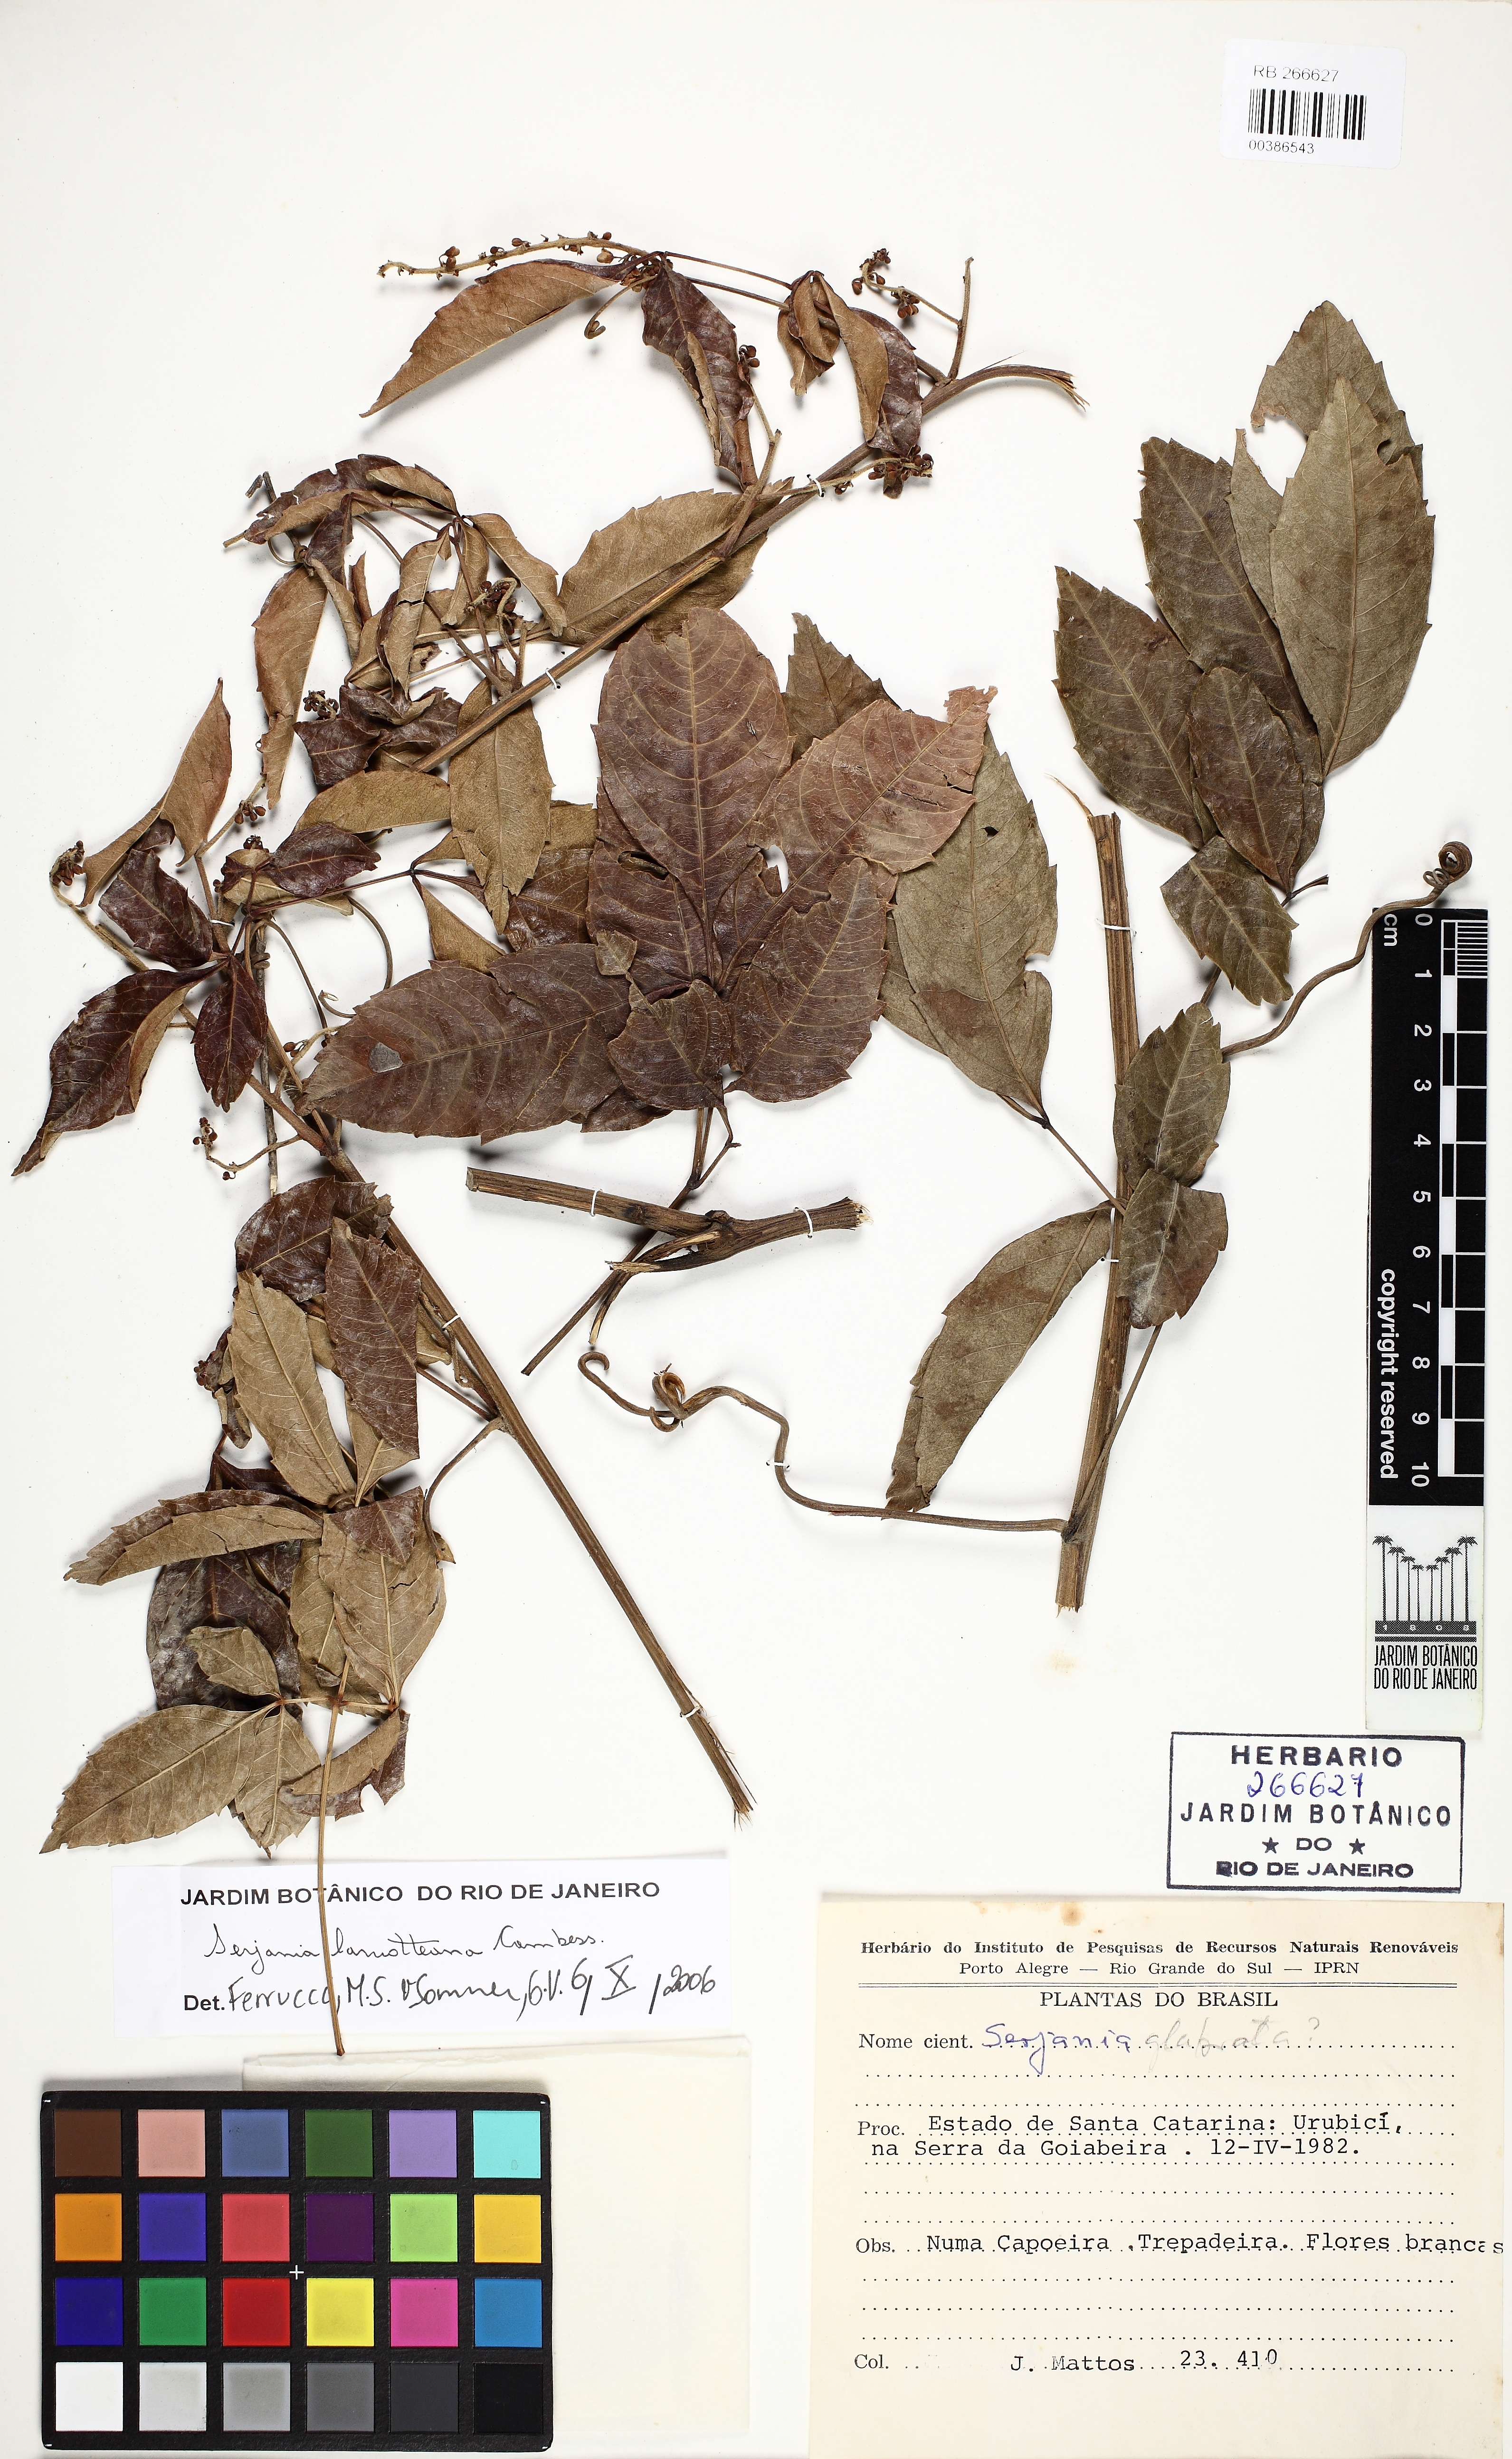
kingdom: Plantae
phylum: Tracheophyta
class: Magnoliopsida
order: Sapindales
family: Sapindaceae
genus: Serjania
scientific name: Serjania laruotteana
